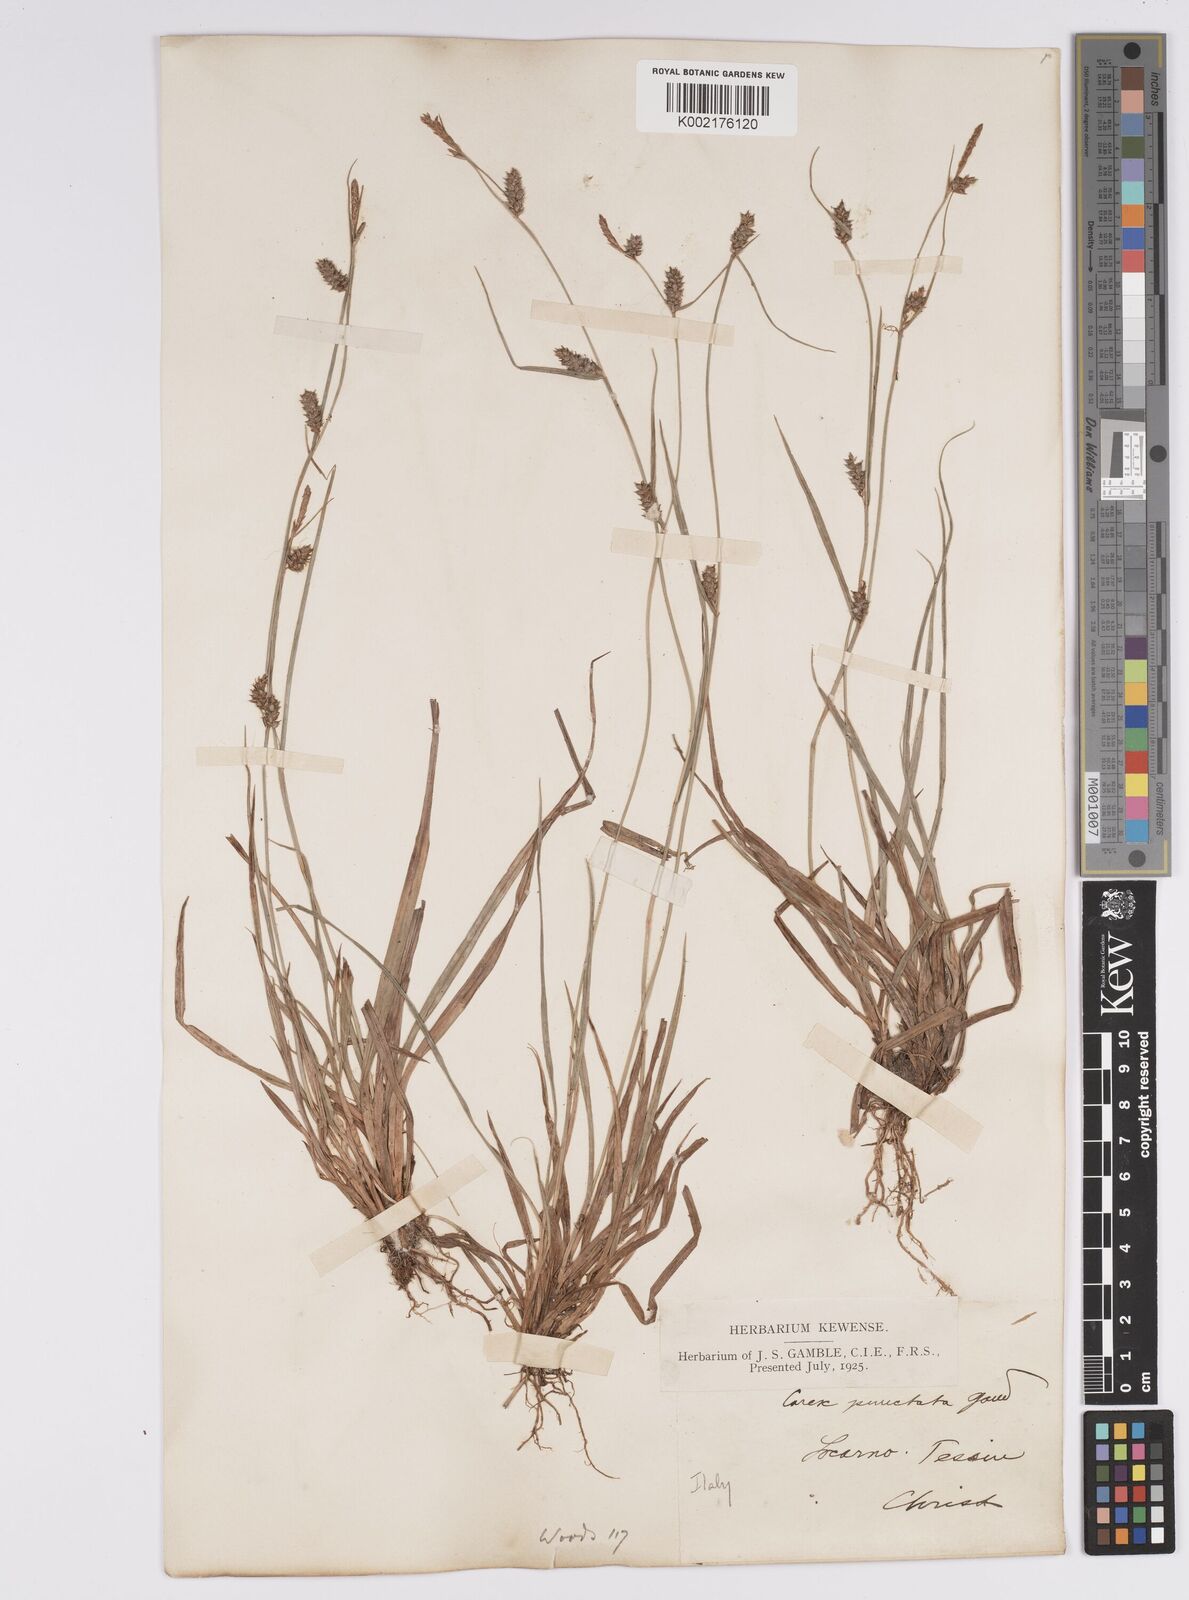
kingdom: Plantae
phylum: Tracheophyta
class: Liliopsida
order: Poales
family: Cyperaceae
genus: Carex
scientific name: Carex punctata
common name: Dotted sedge
